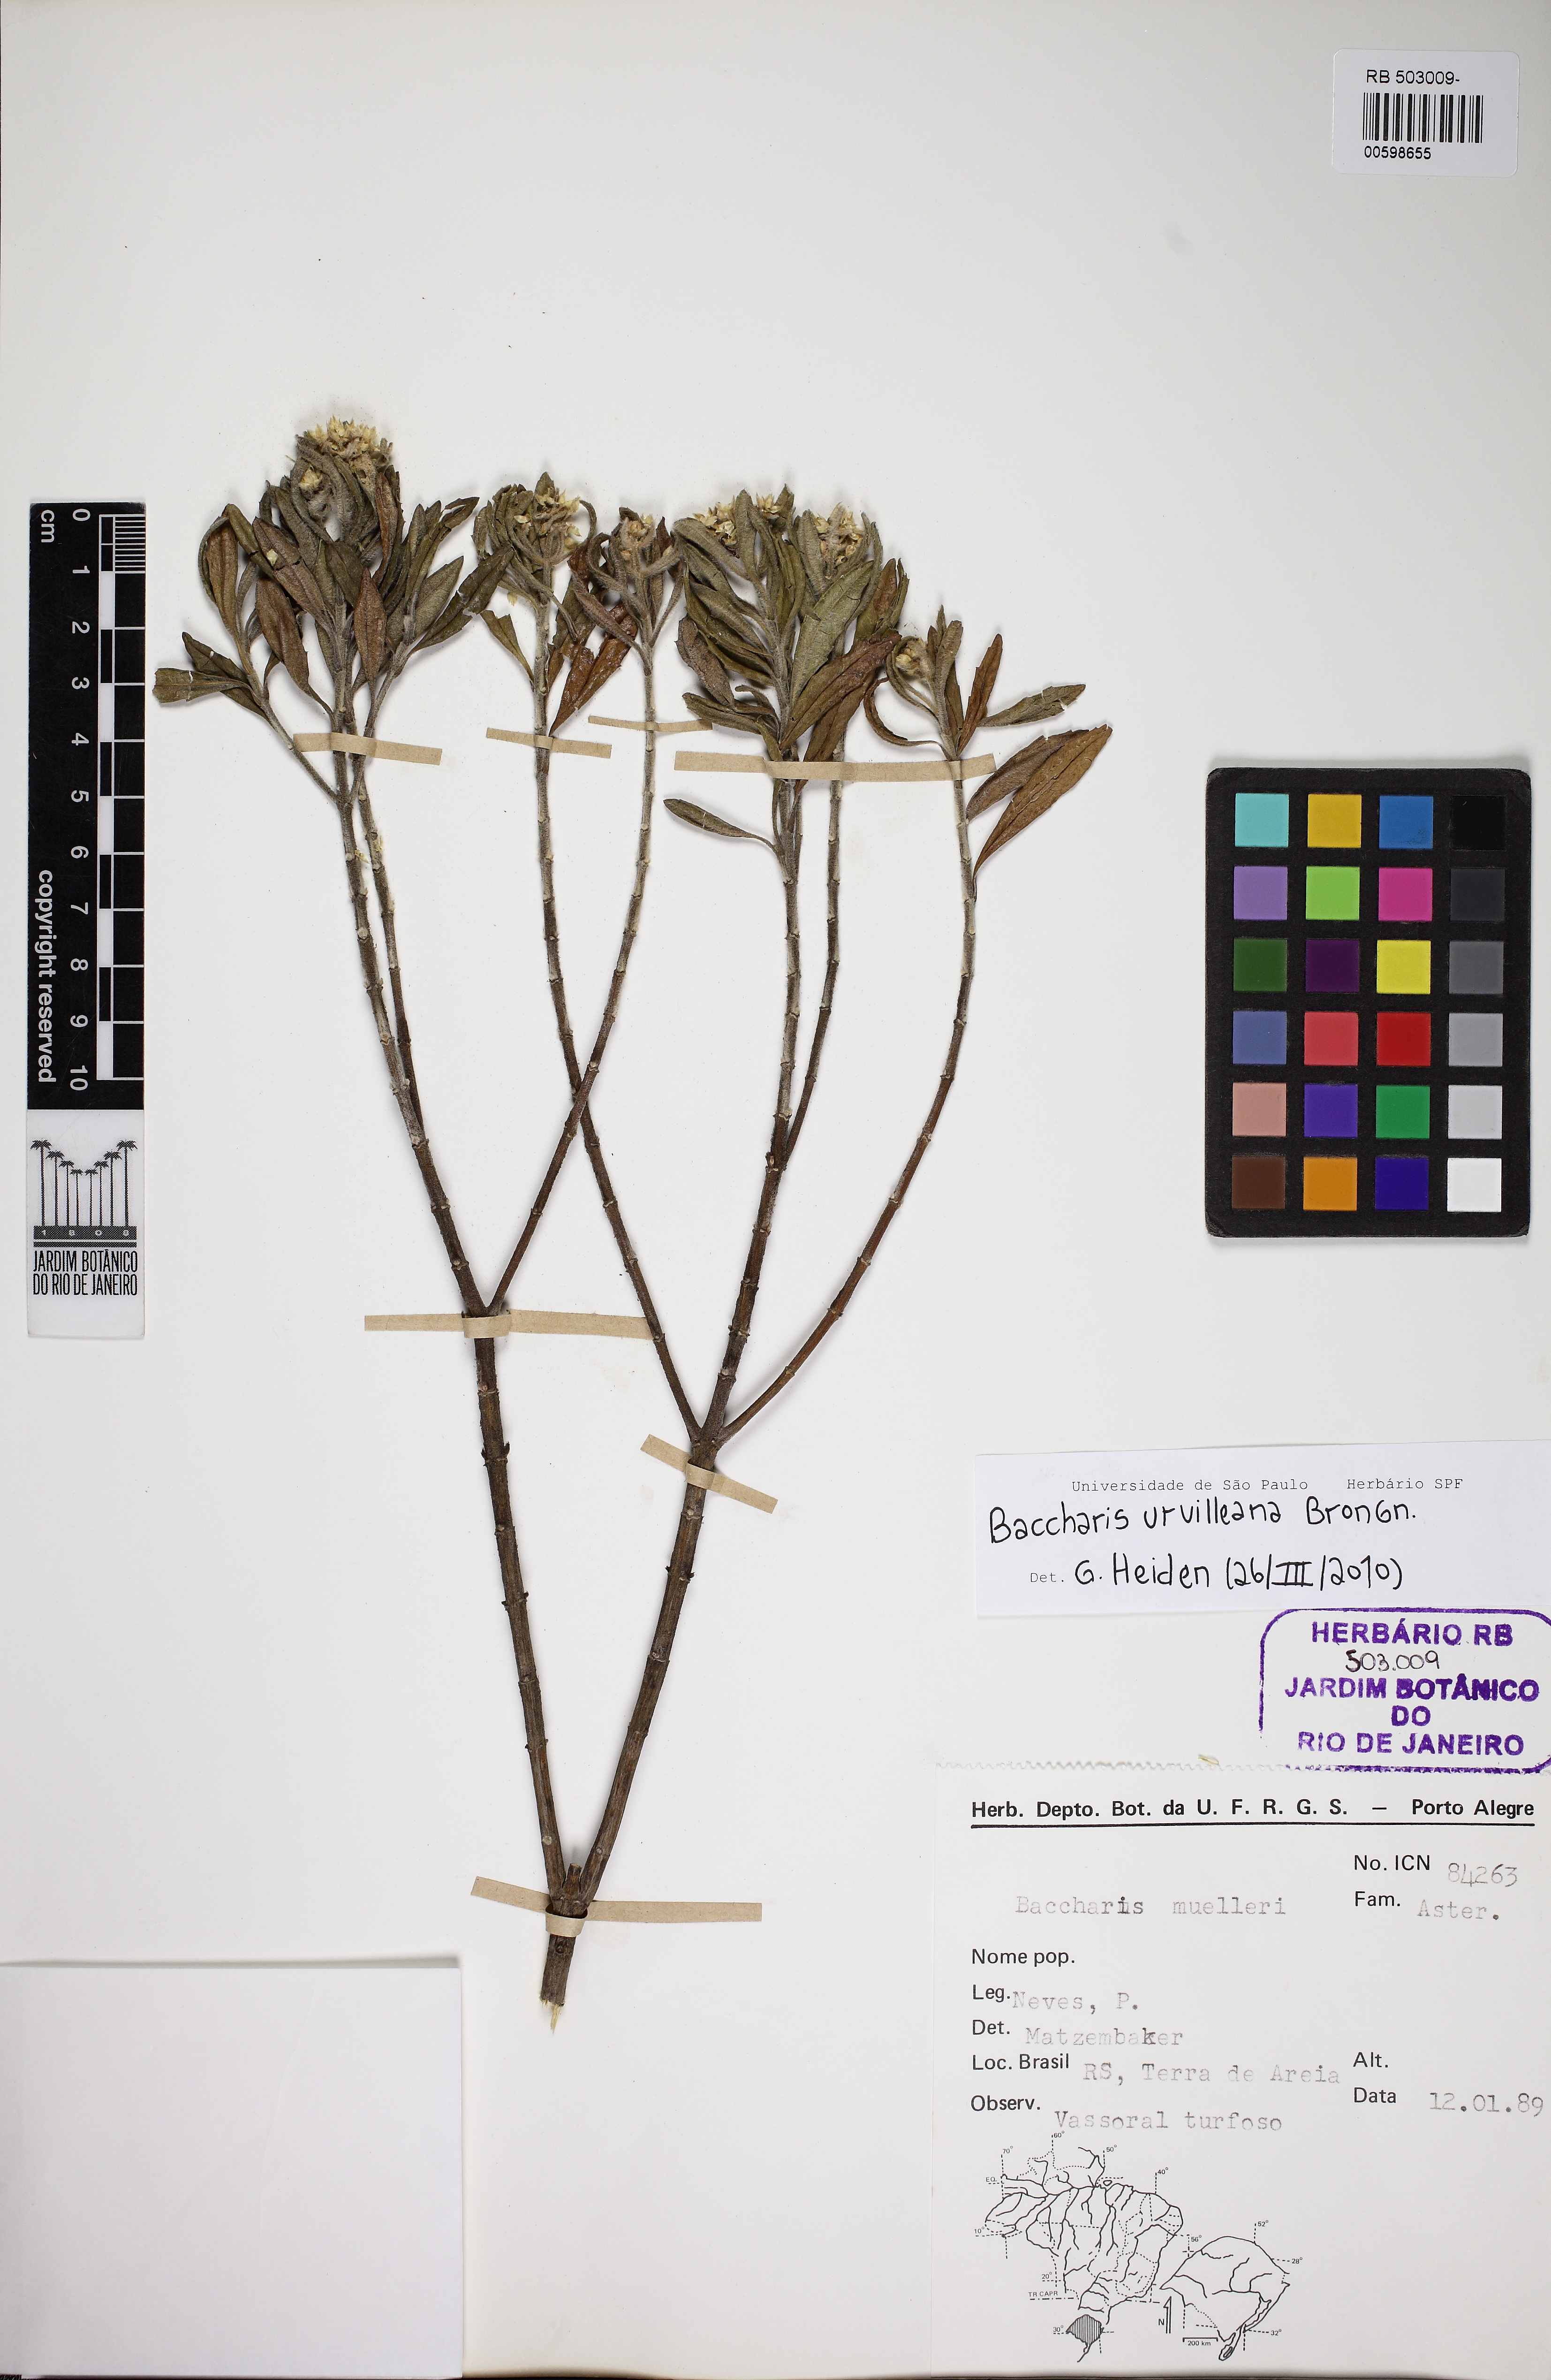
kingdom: Plantae
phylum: Tracheophyta
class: Magnoliopsida
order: Asterales
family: Asteraceae
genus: Baccharis
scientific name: Baccharis urvilleana
